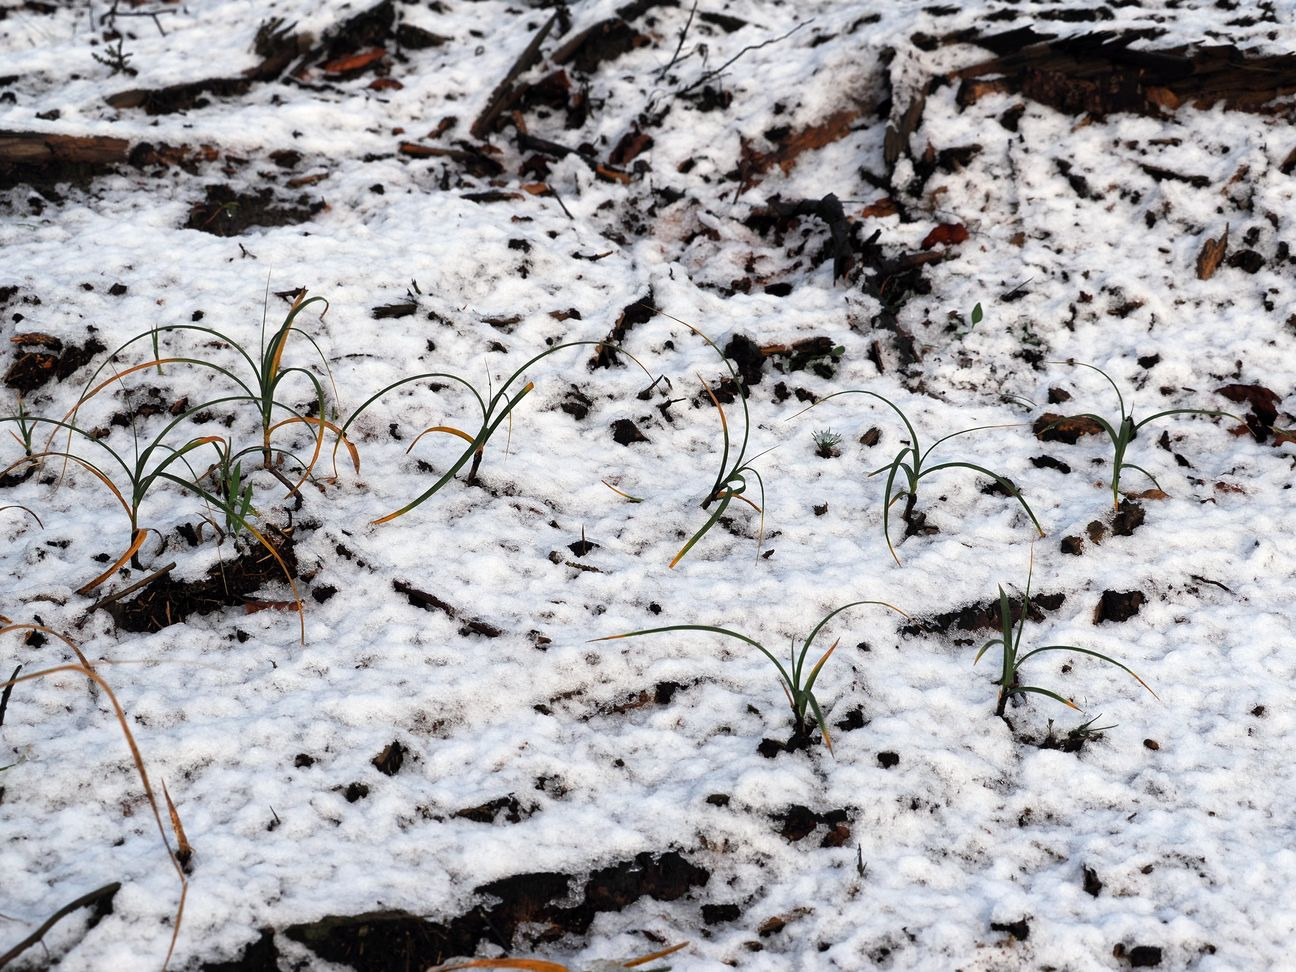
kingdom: Plantae
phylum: Tracheophyta
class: Liliopsida
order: Poales
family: Cyperaceae
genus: Carex
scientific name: Carex arenaria
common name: Sand-star
